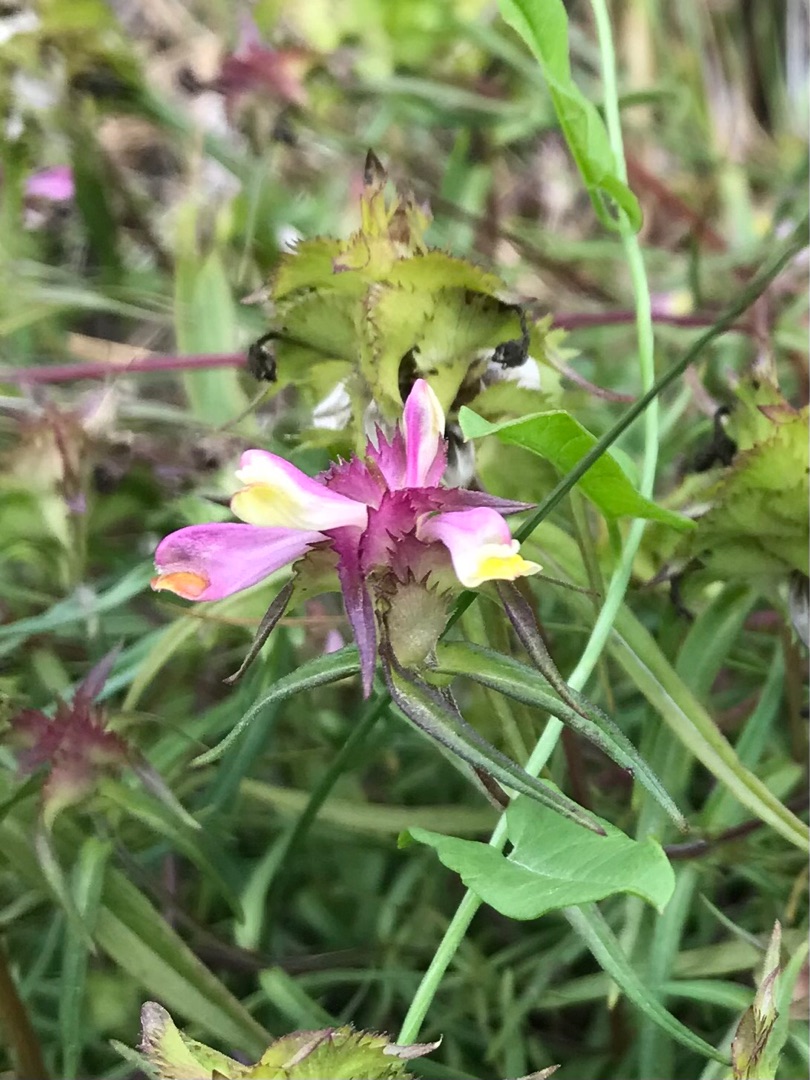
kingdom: Plantae
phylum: Tracheophyta
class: Magnoliopsida
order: Lamiales
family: Orobanchaceae
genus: Melampyrum
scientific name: Melampyrum cristatum
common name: Kantet kohvede
